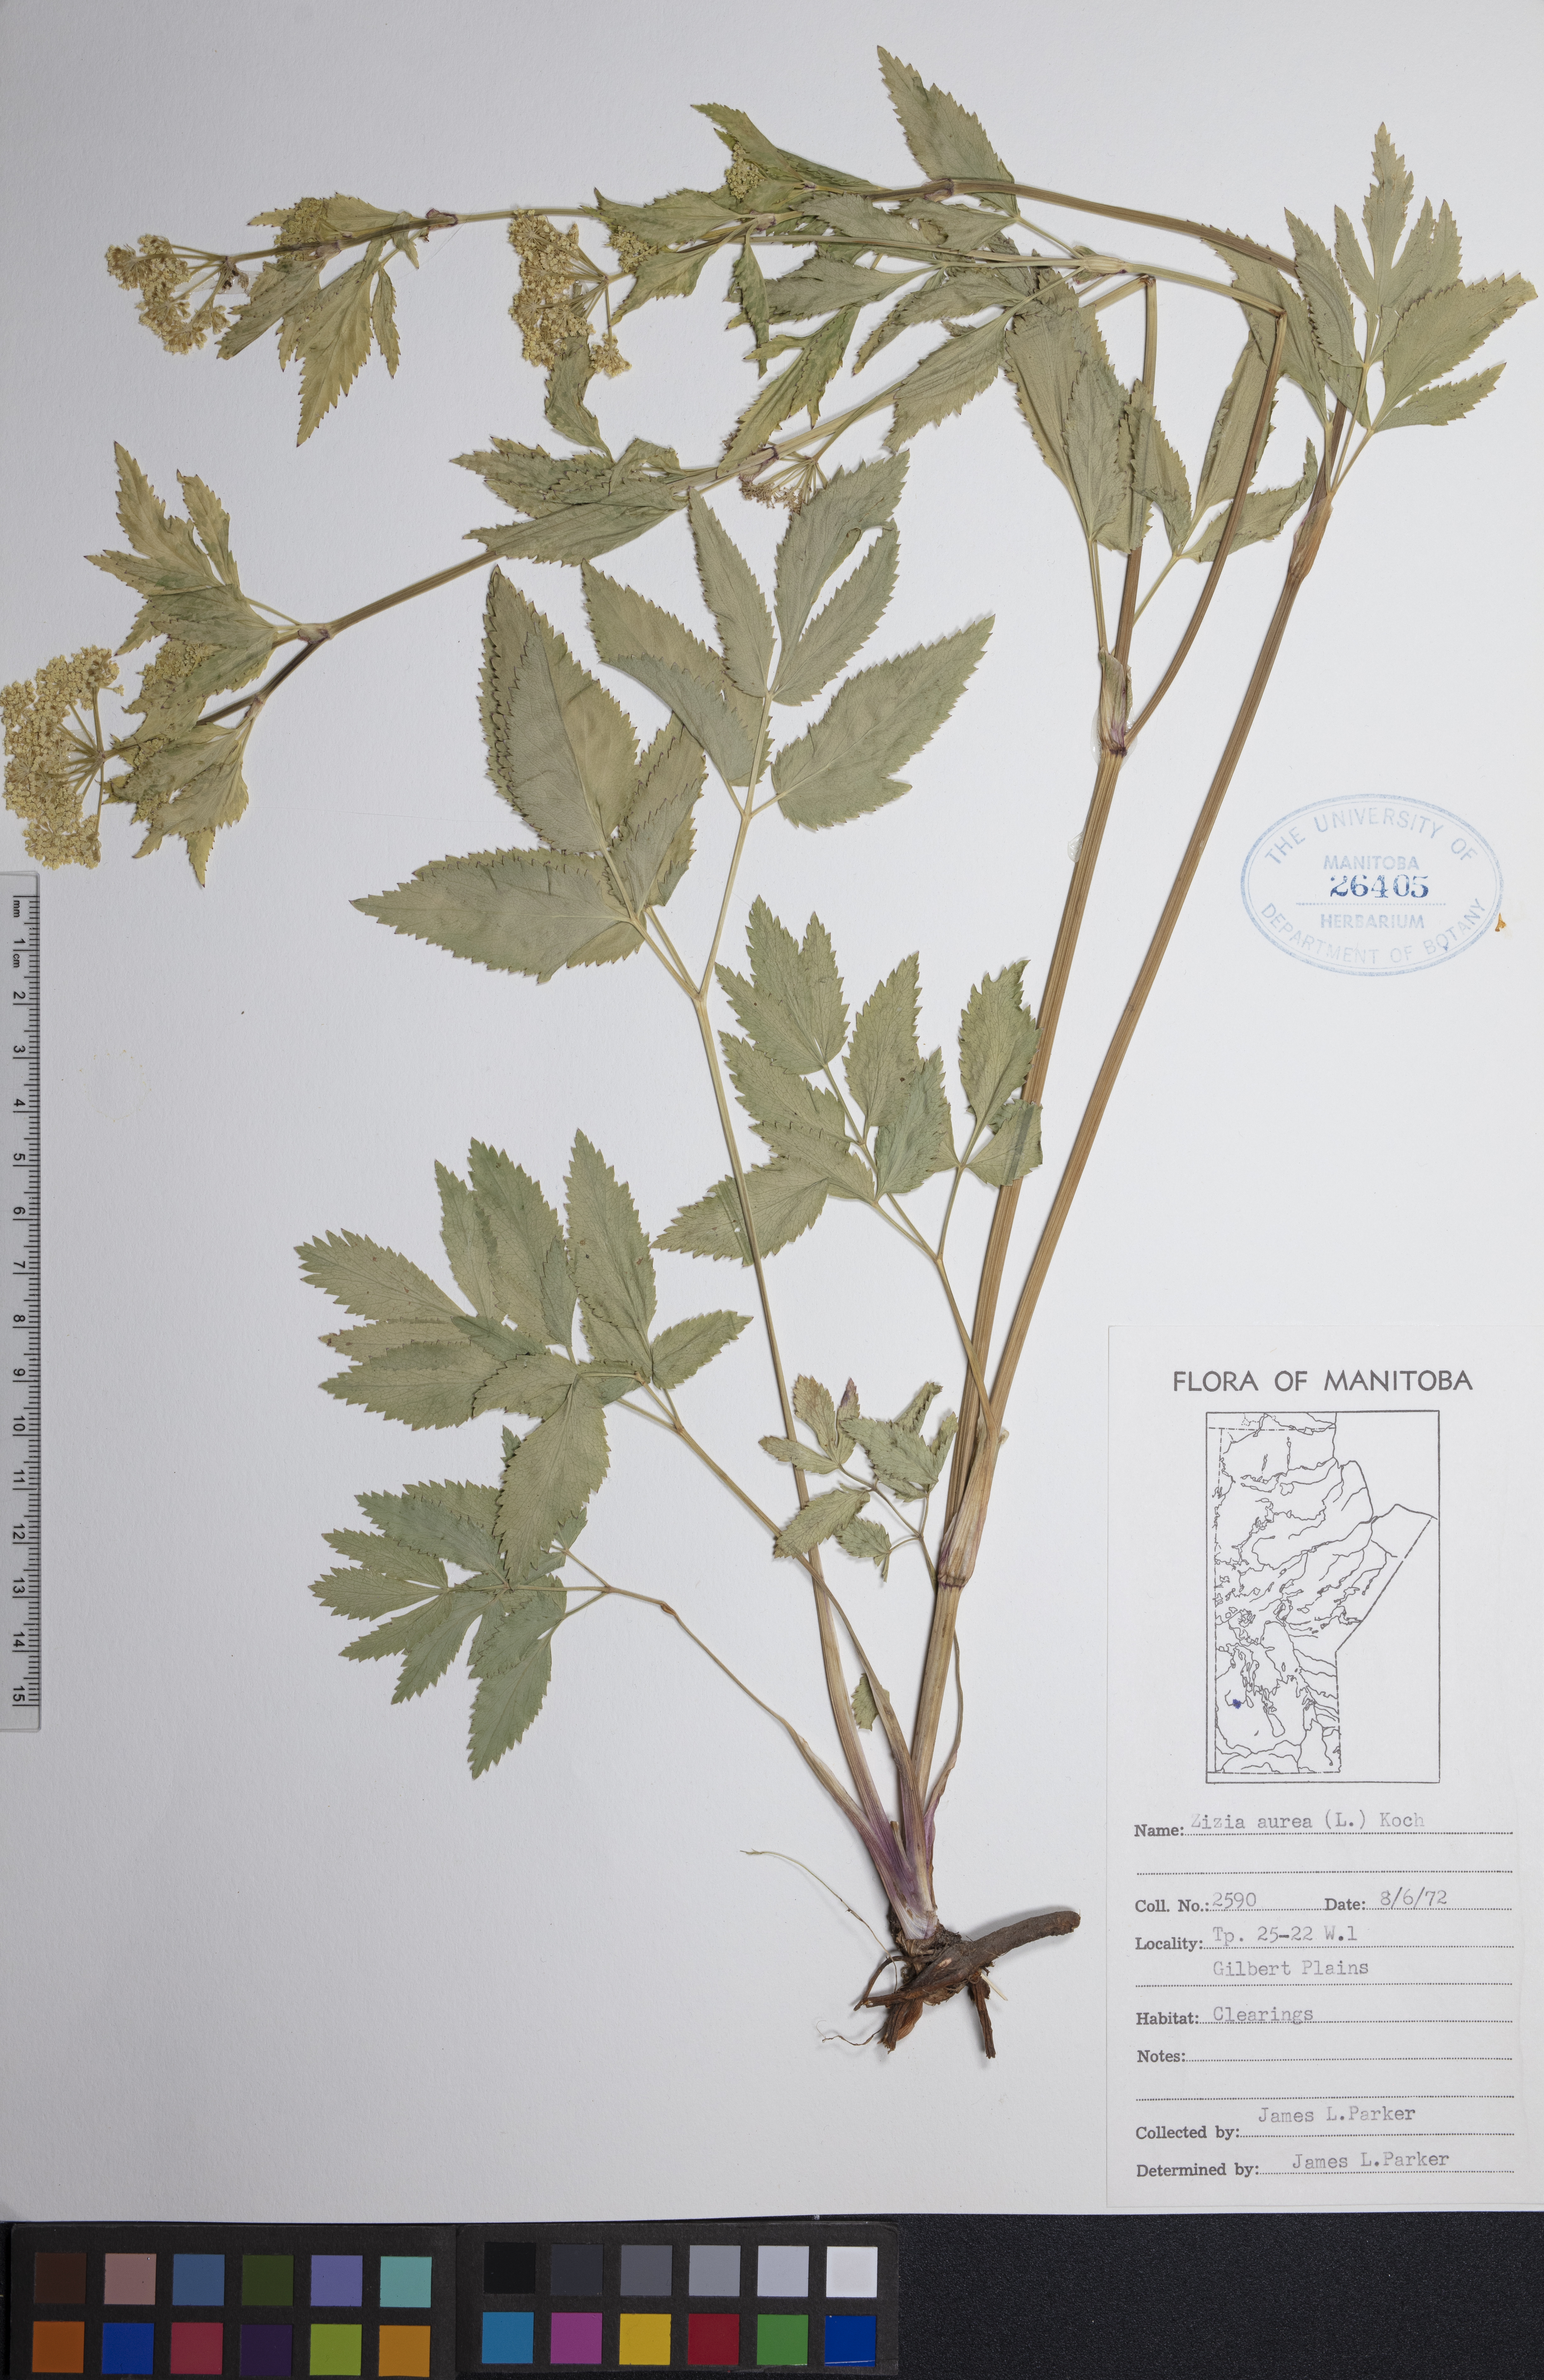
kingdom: Plantae
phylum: Tracheophyta
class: Magnoliopsida
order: Apiales
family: Apiaceae
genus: Zizia
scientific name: Zizia aurea
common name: Golden alexanders
